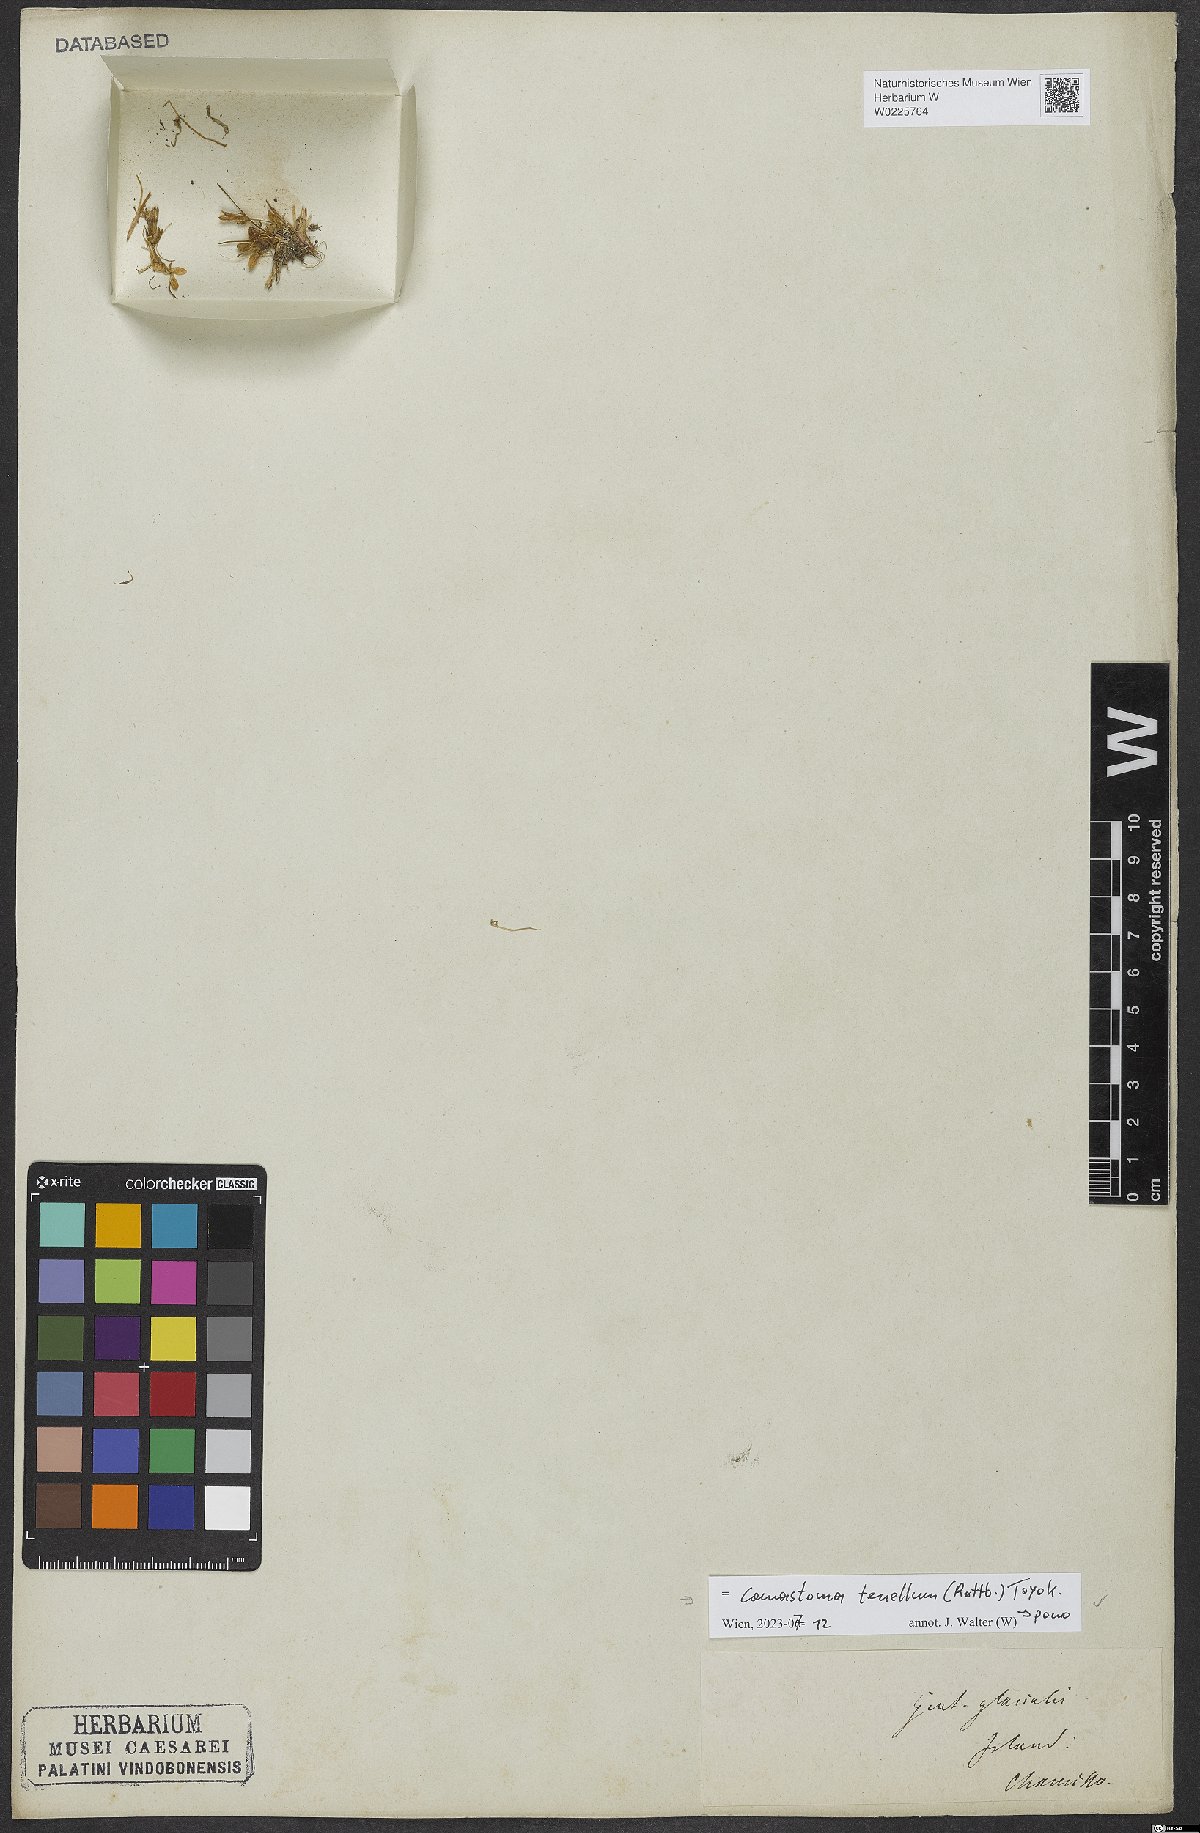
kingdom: Plantae
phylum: Tracheophyta
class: Magnoliopsida
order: Gentianales
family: Gentianaceae
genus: Comastoma
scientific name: Comastoma tenellum
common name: Dane's dwarf gentian
